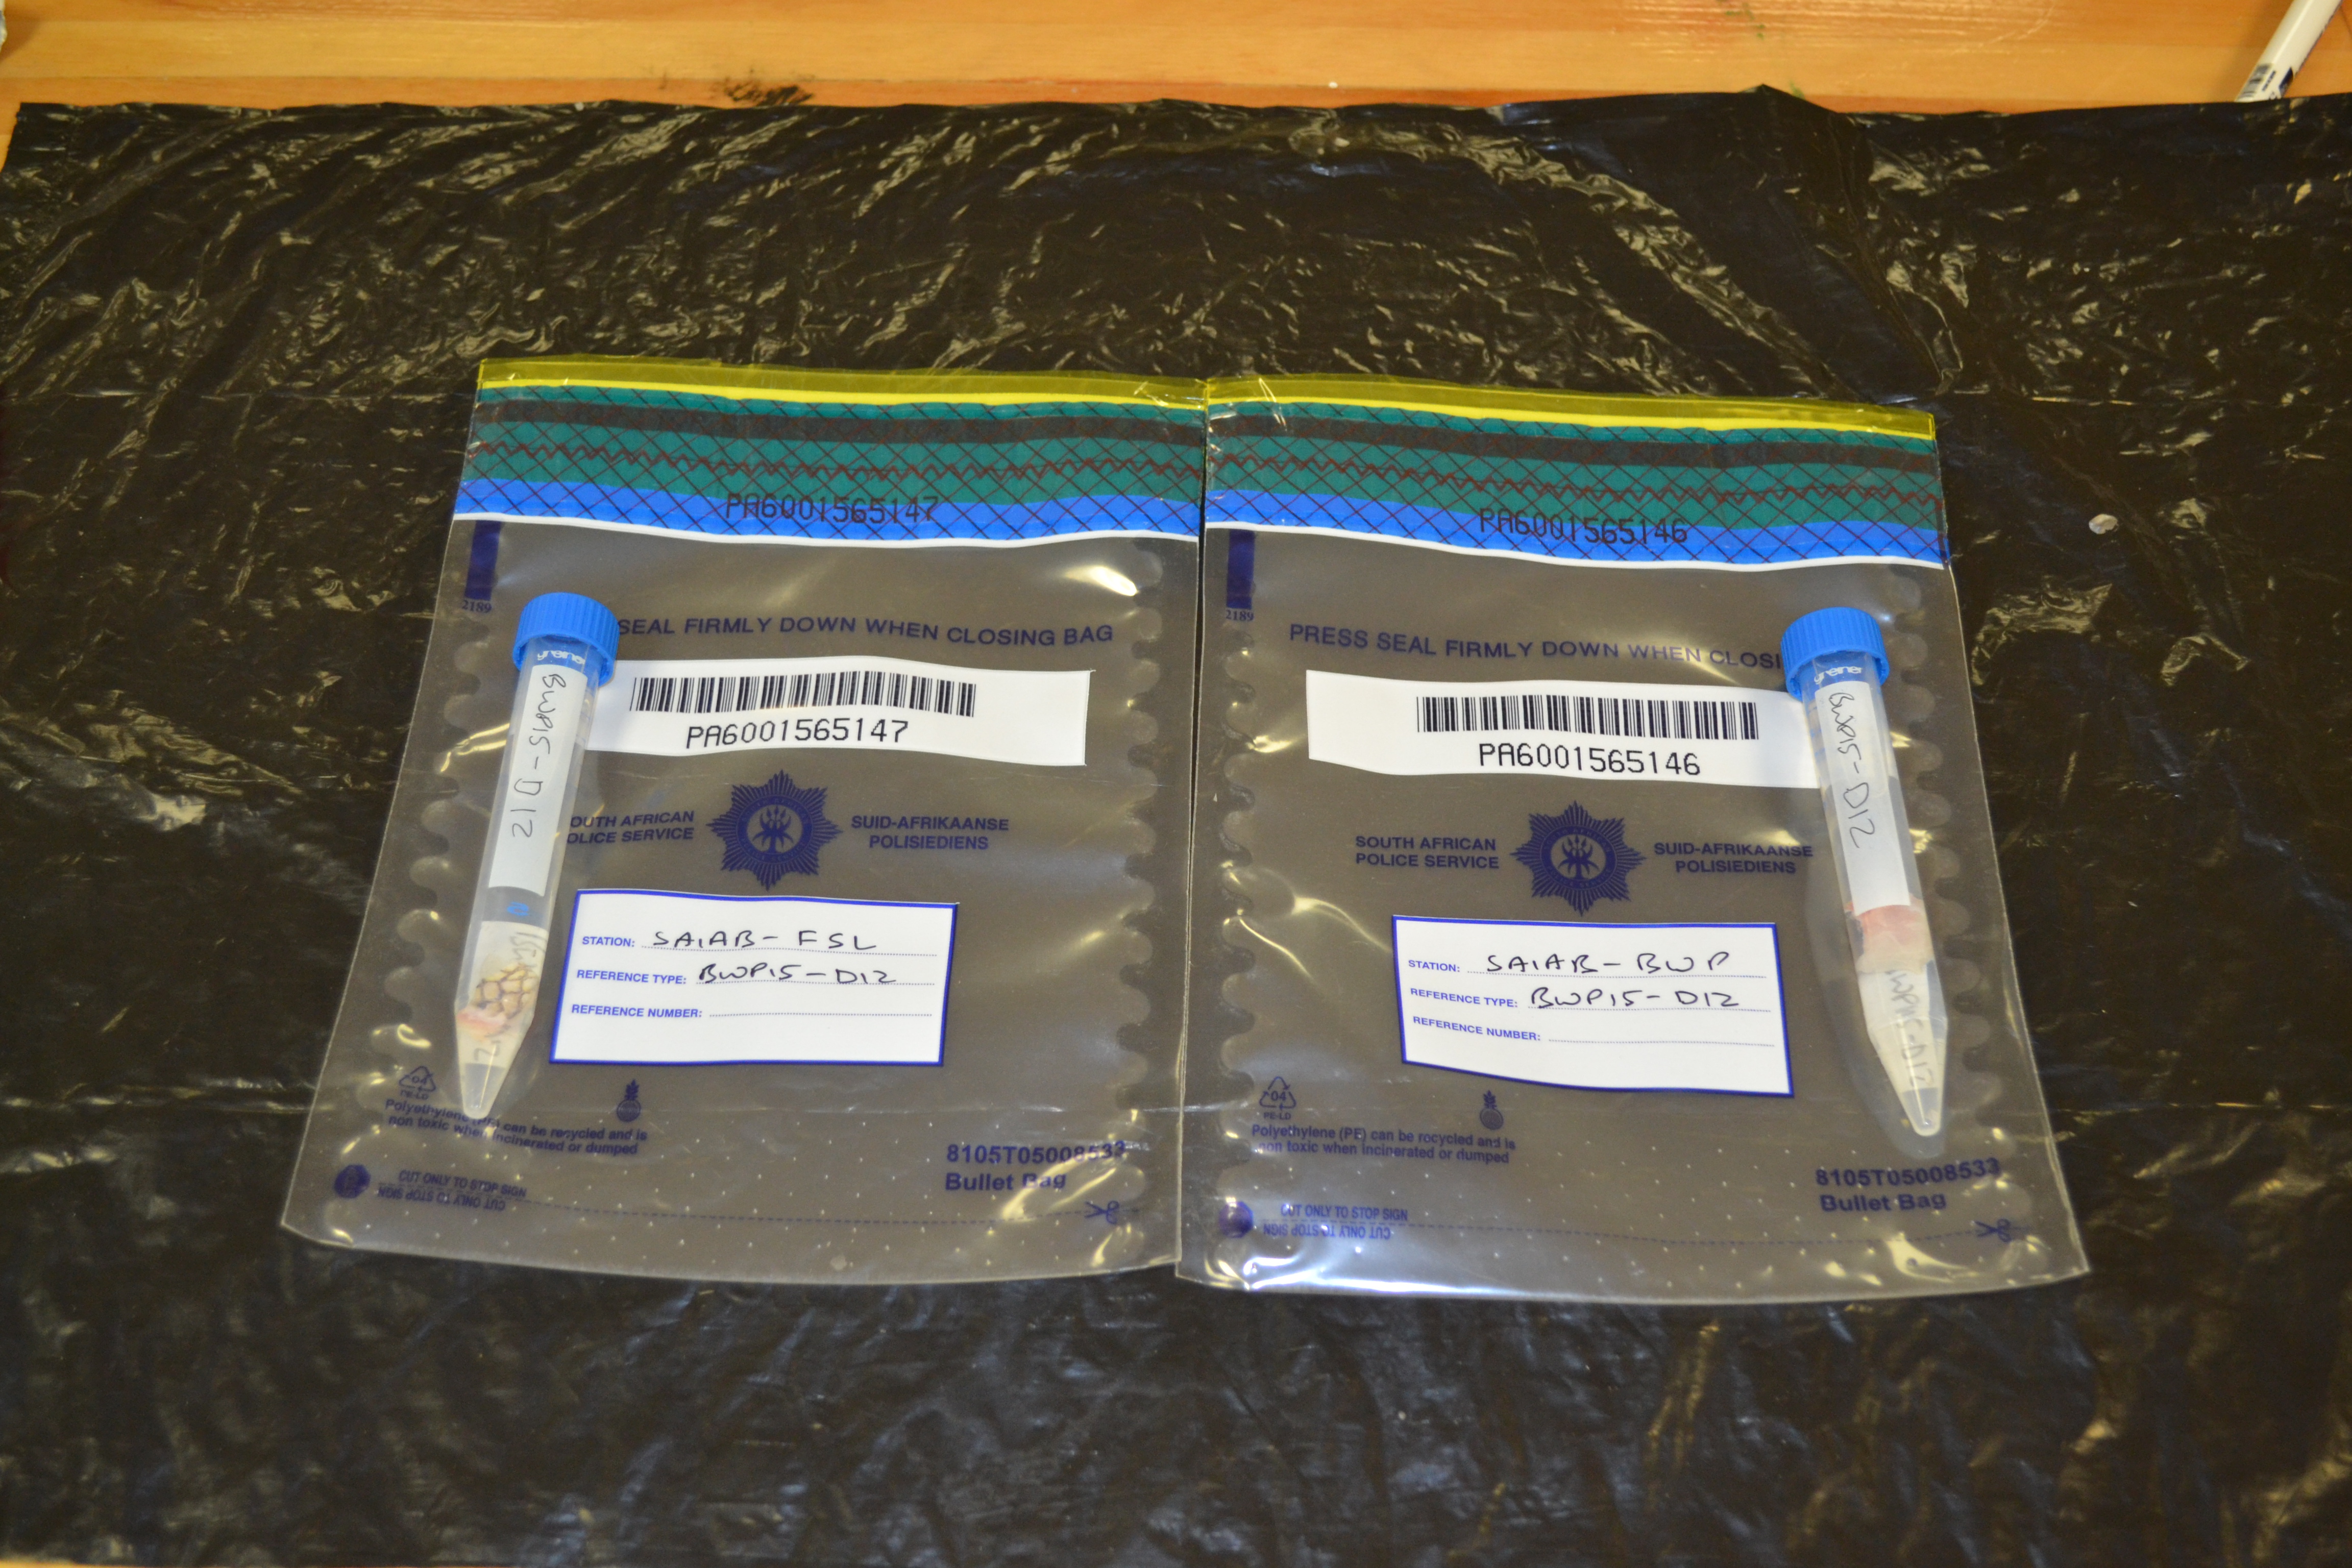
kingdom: Animalia
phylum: Chordata
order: Perciformes
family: Sparidae
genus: Cymatoceps
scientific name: Cymatoceps nasutus
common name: Black musselcracker
